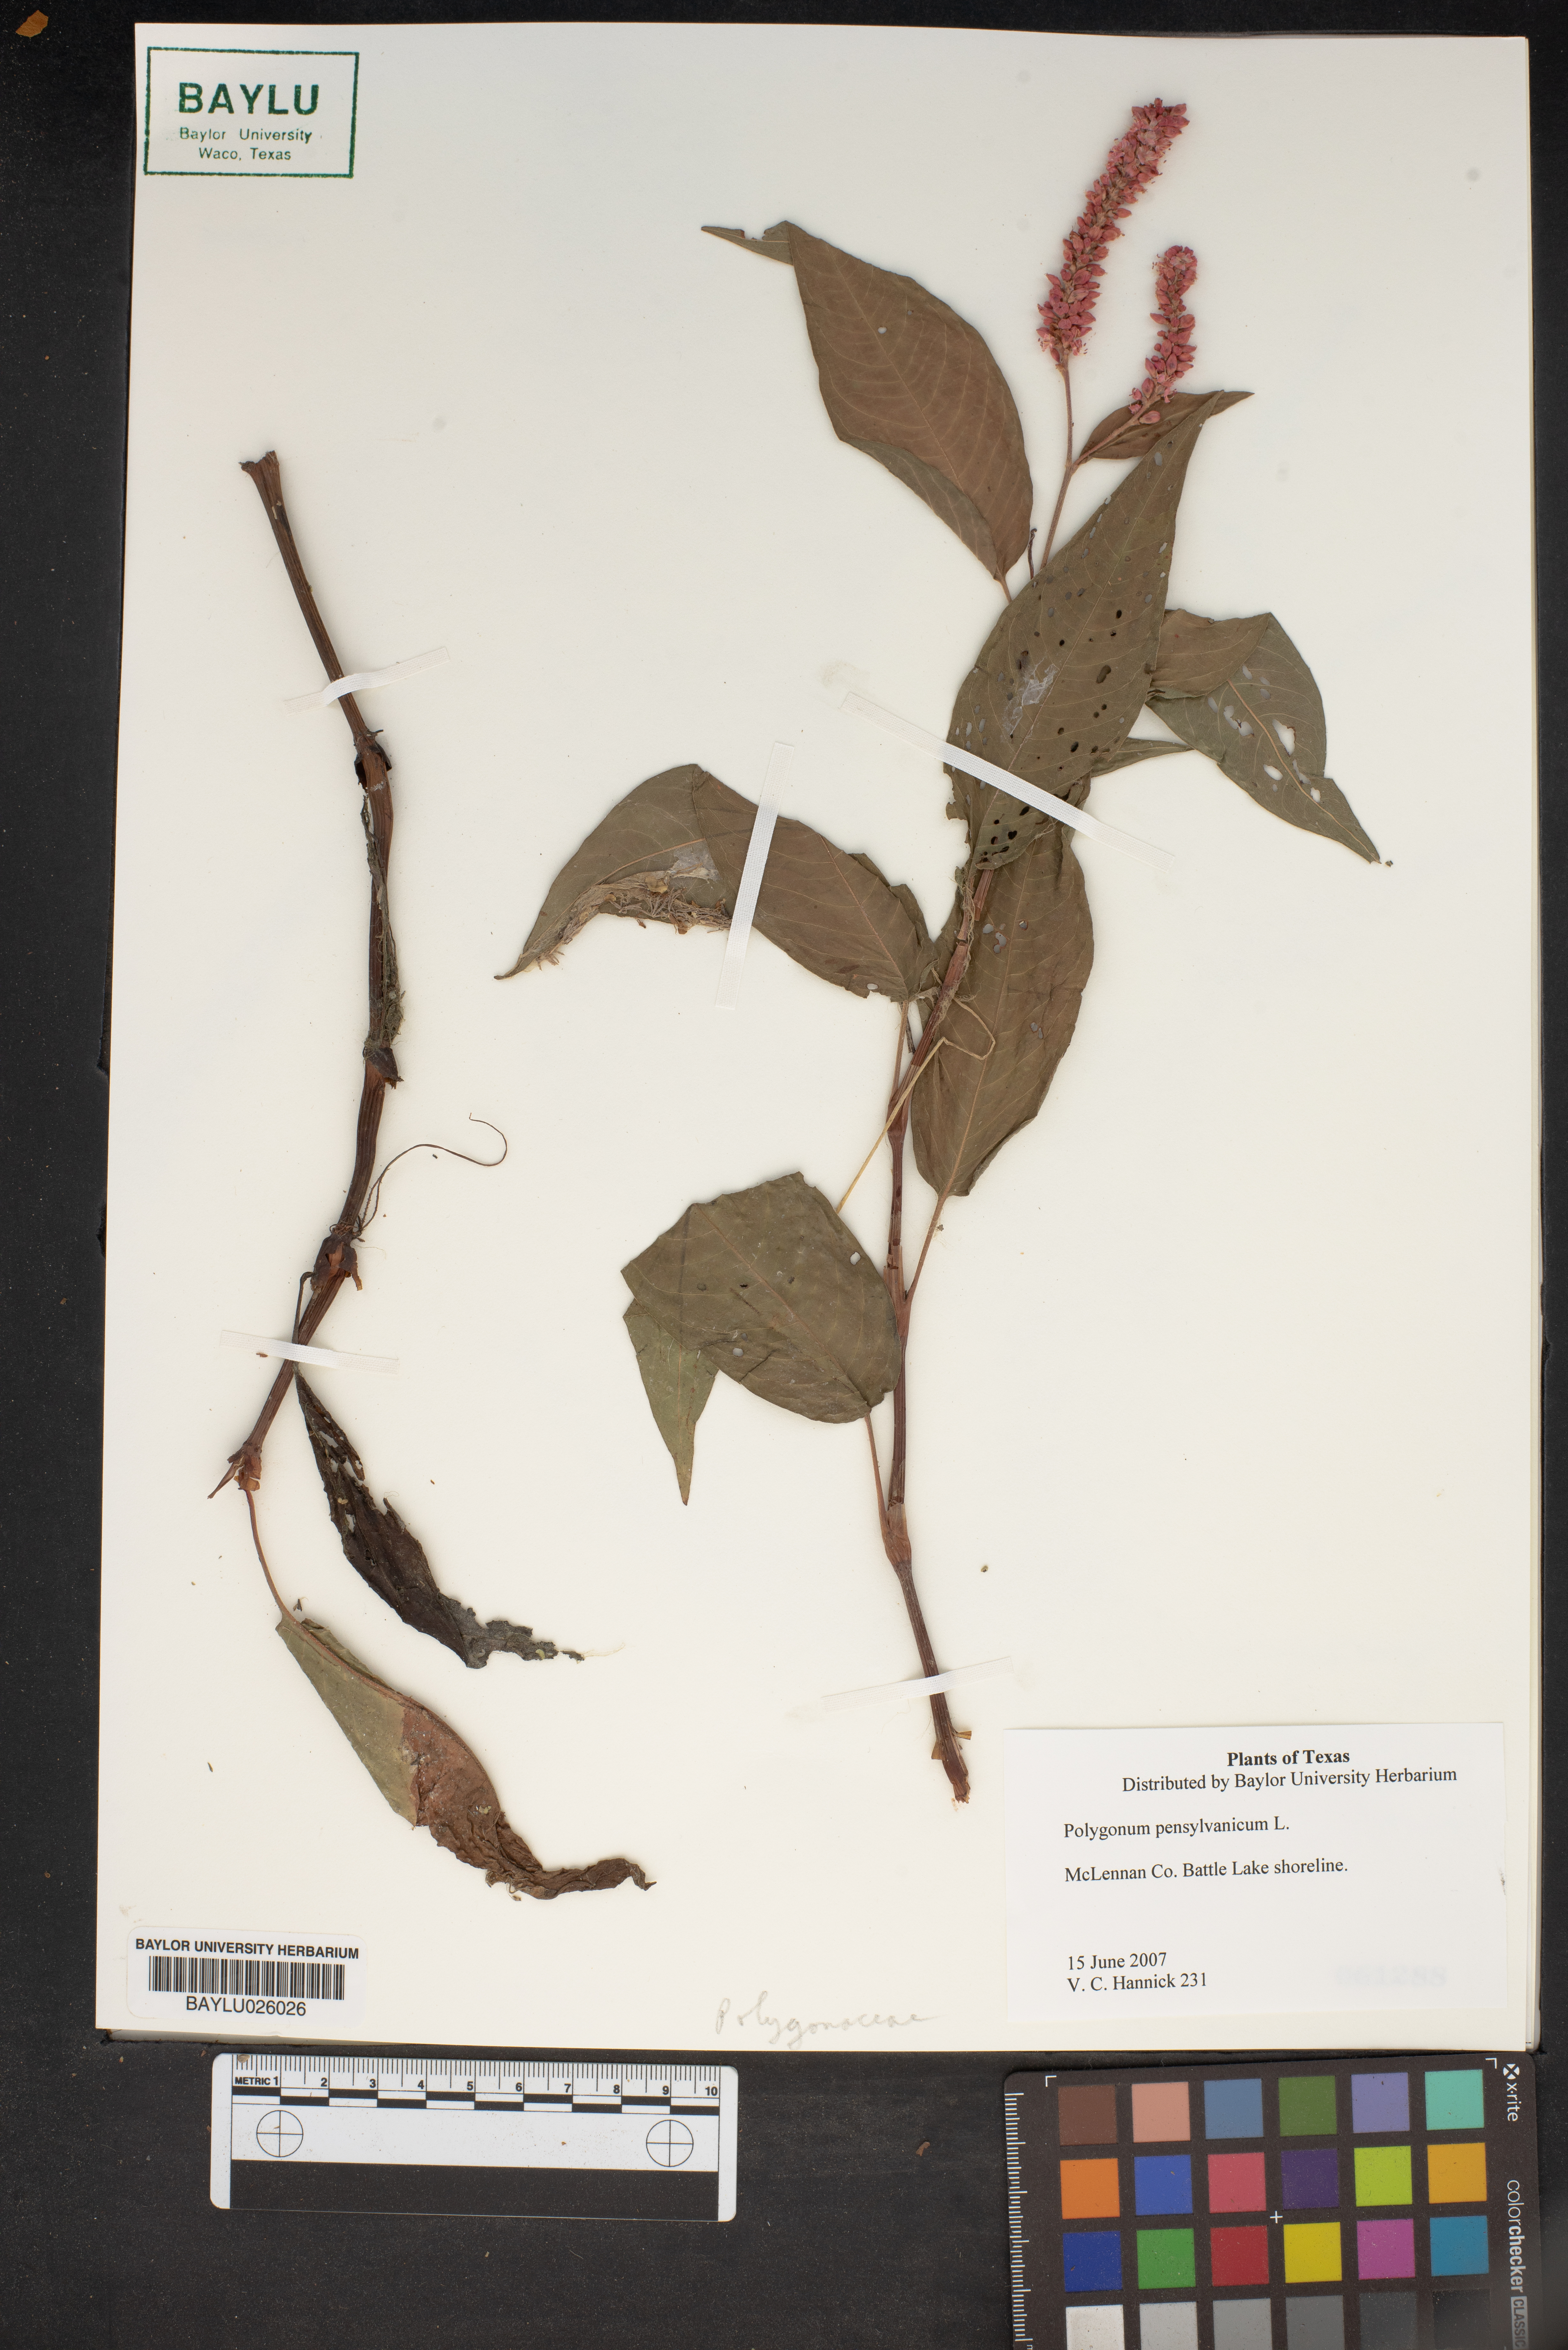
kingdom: Plantae
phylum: Tracheophyta
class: Magnoliopsida
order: Caryophyllales
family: Polygonaceae
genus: Persicaria
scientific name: Persicaria pensylvanica
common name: Pinkweed
